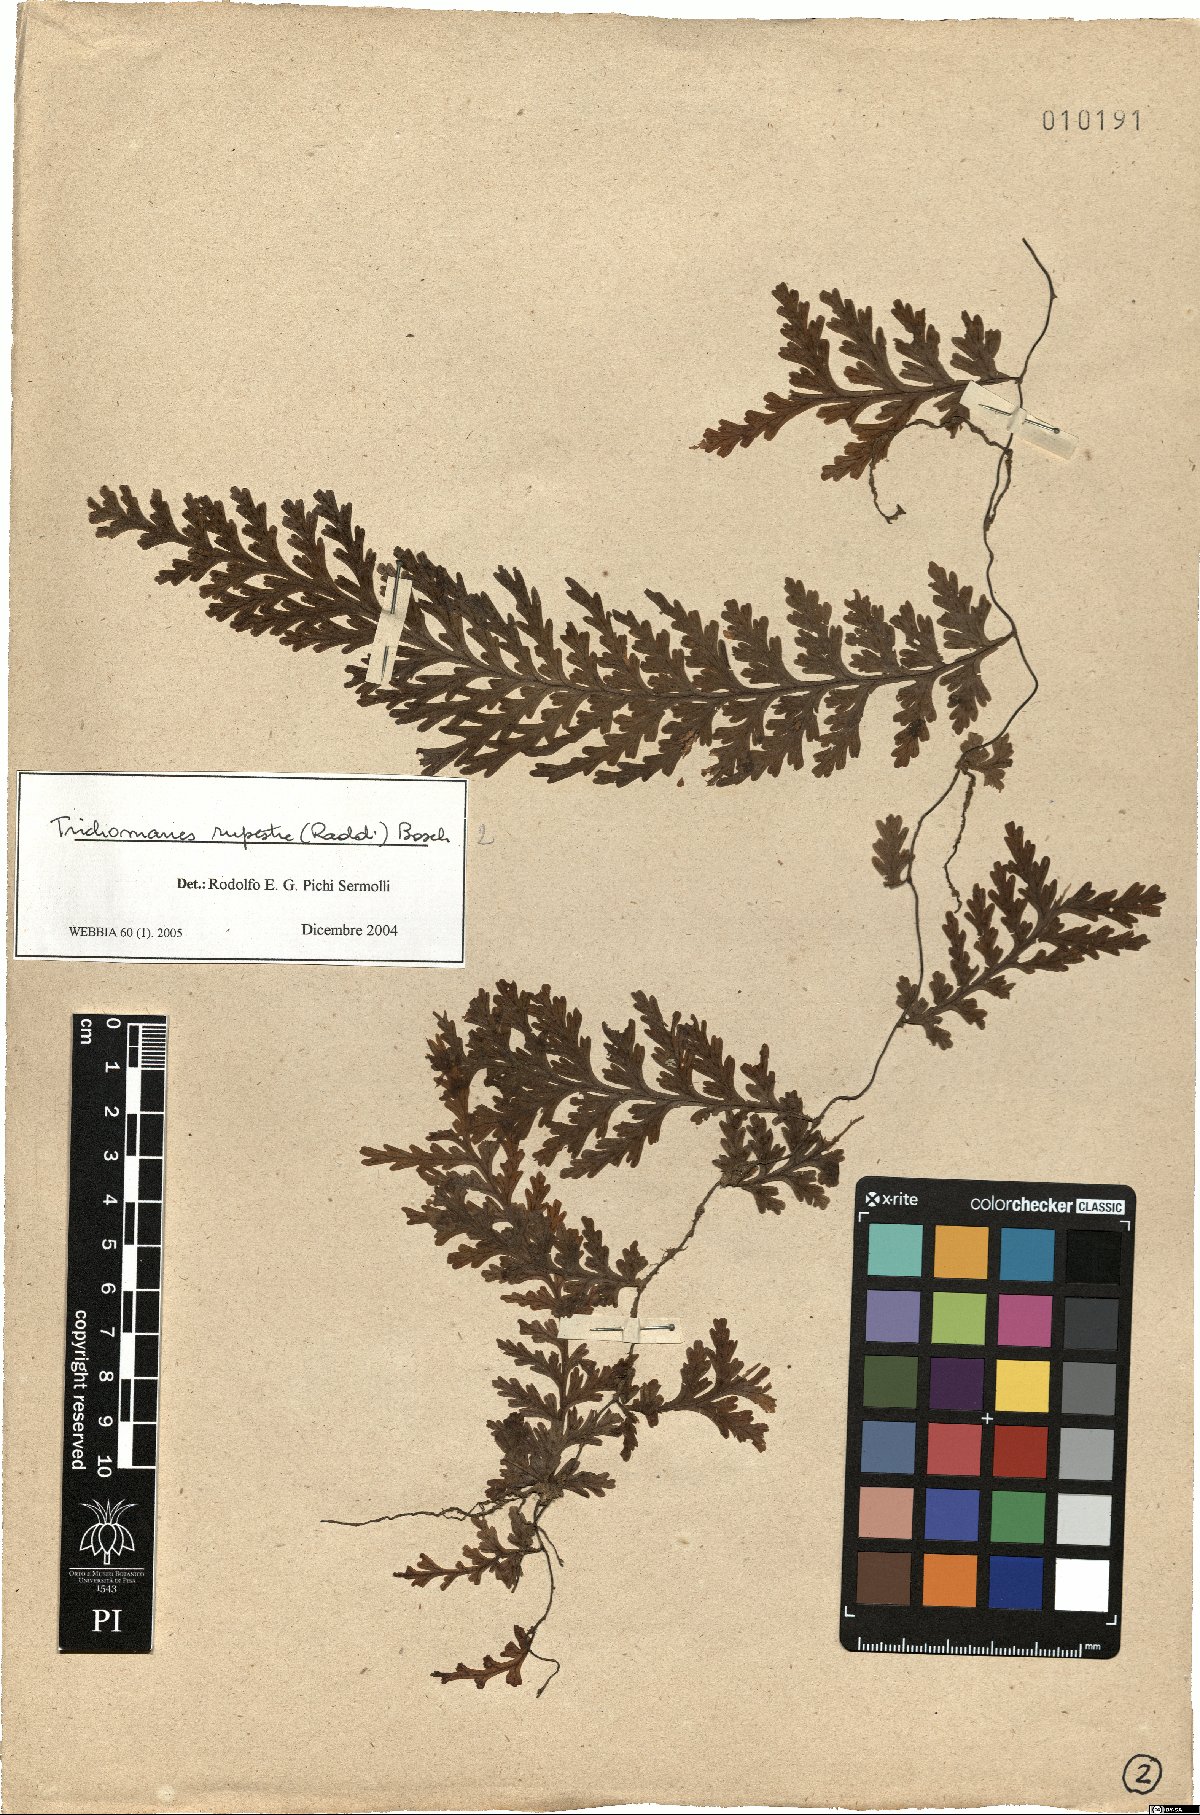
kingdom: Plantae
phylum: Tracheophyta
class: Polypodiopsida
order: Hymenophyllales
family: Hymenophyllaceae
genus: Vandenboschia
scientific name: Vandenboschia rupestris
